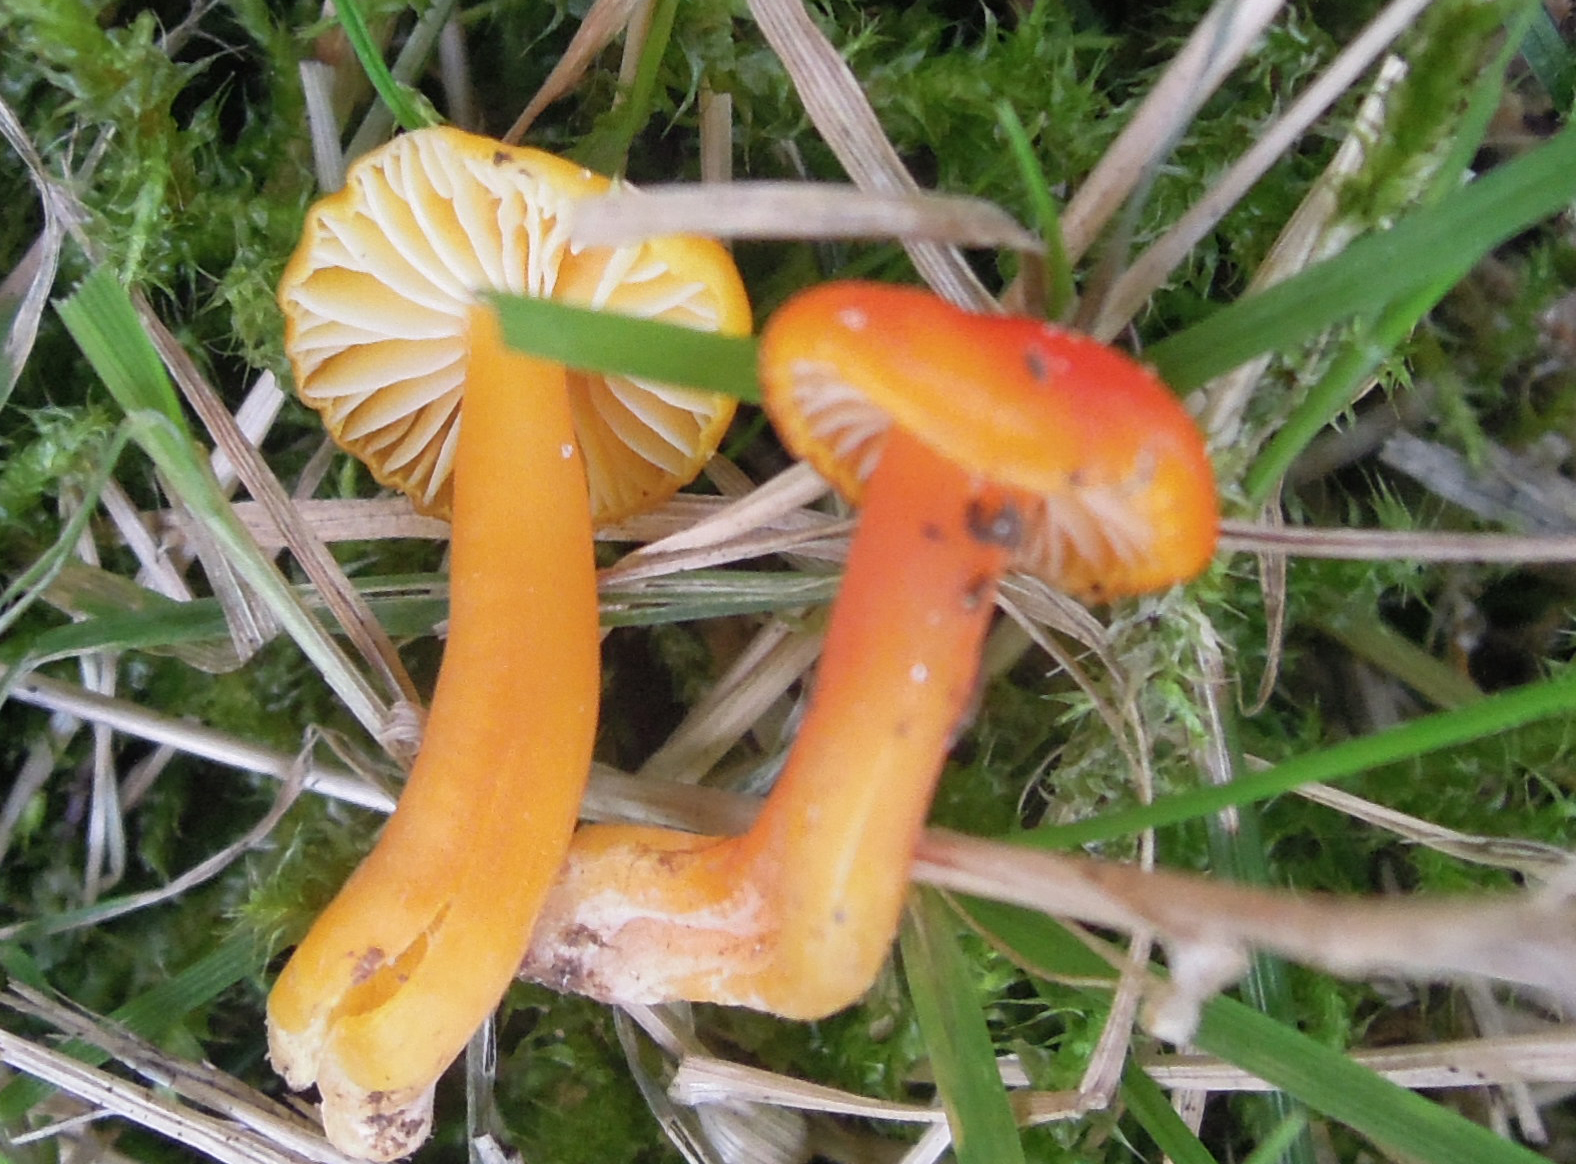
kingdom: Fungi
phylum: Basidiomycota
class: Agaricomycetes
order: Agaricales
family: Hygrophoraceae
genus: Hygrocybe
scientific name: Hygrocybe insipida
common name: liden vokshat
